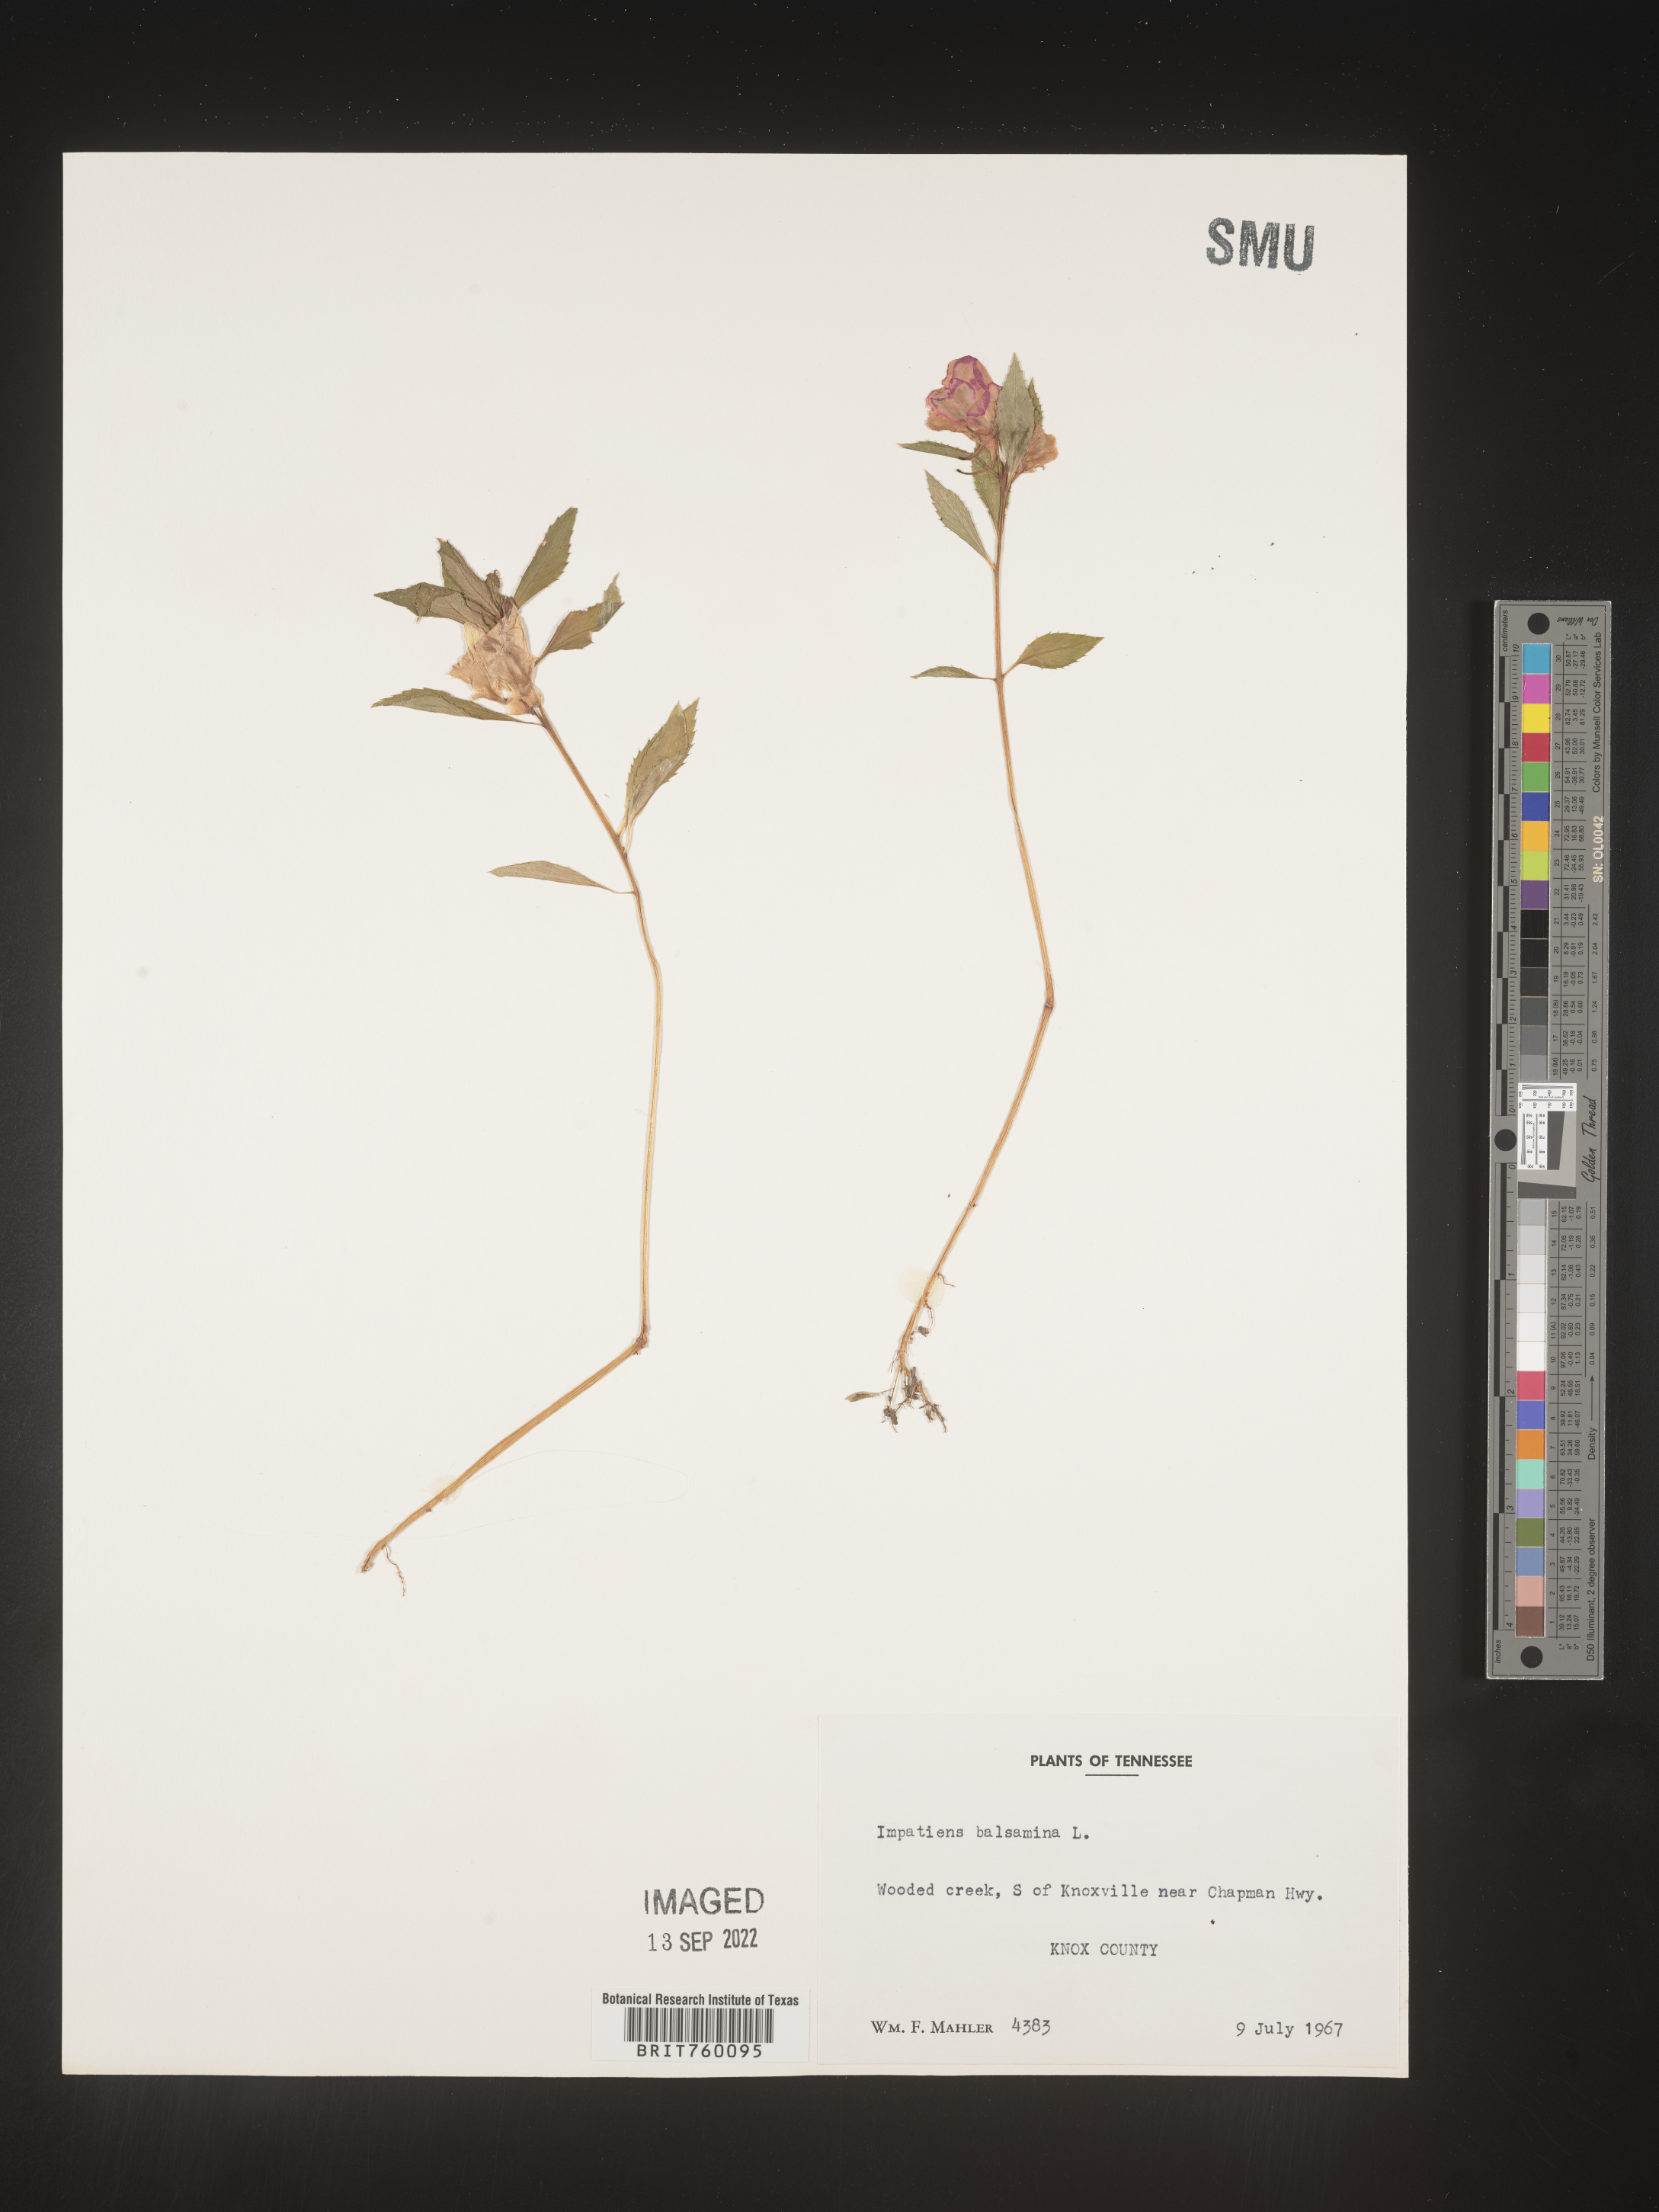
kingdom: Plantae
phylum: Tracheophyta
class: Magnoliopsida
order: Ericales
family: Balsaminaceae
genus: Impatiens
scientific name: Impatiens
